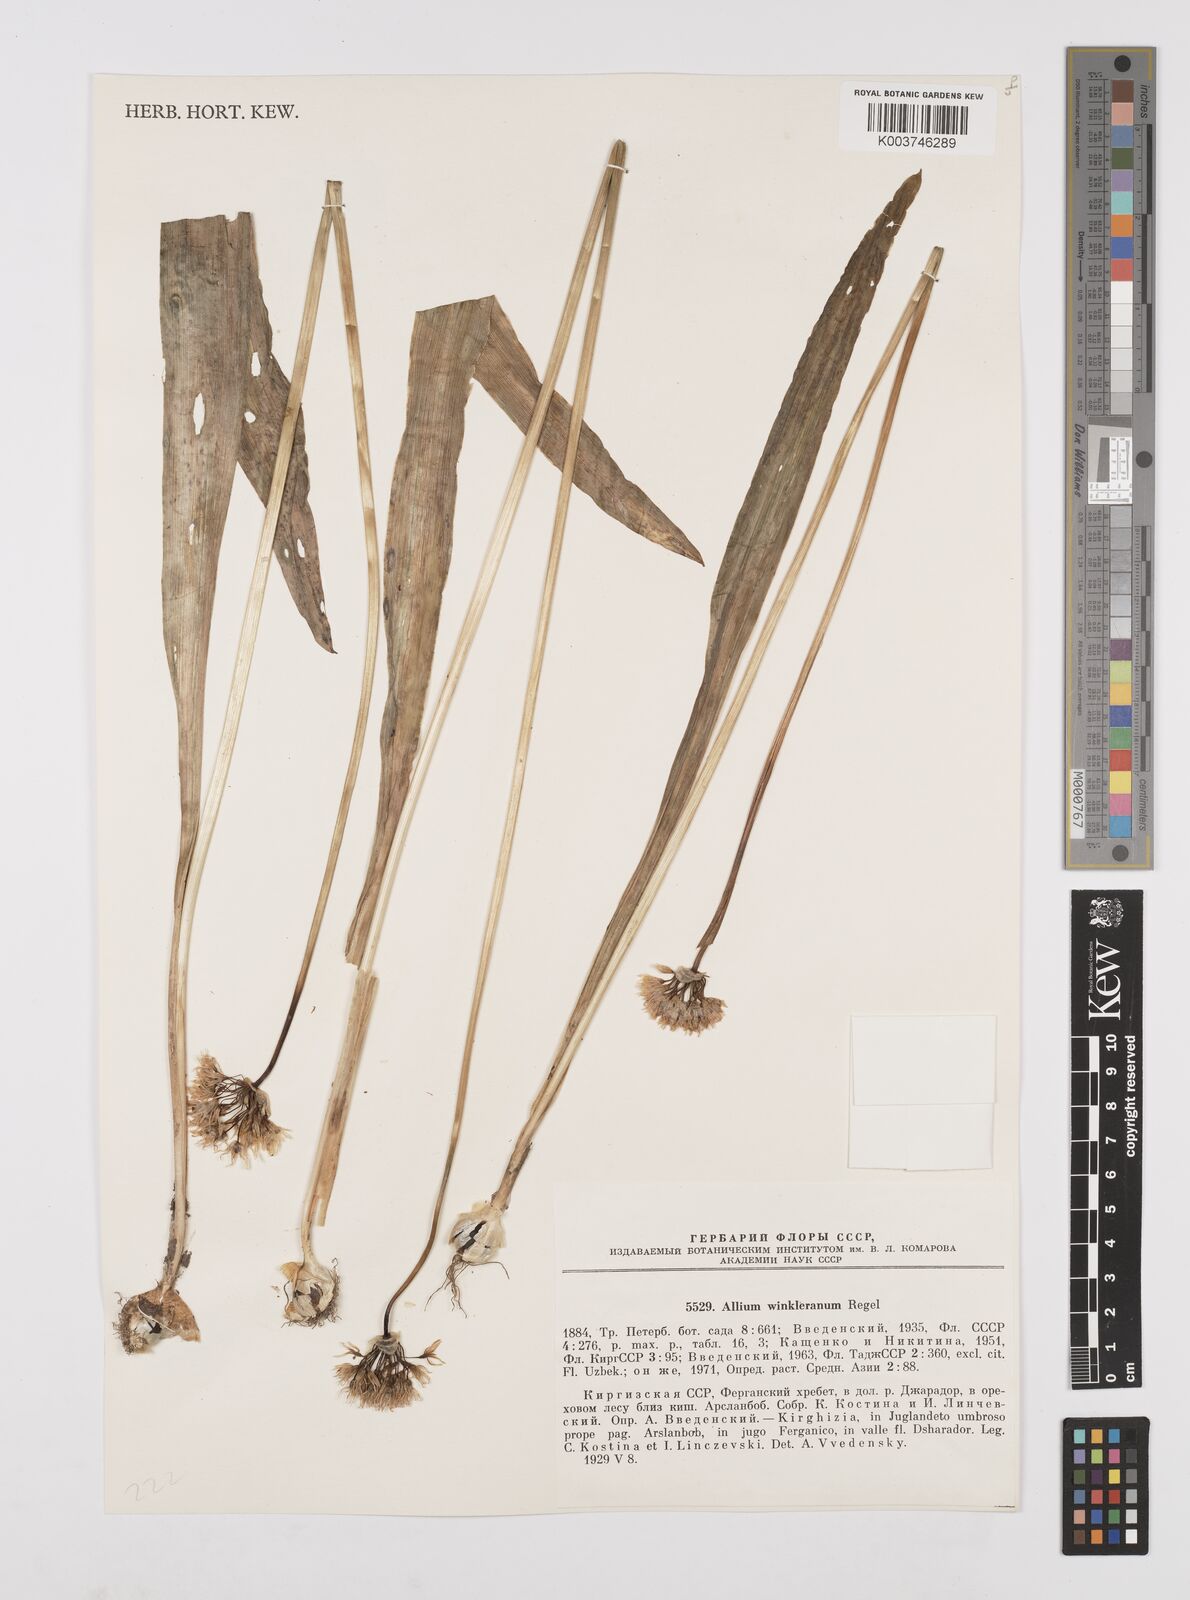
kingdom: Plantae
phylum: Tracheophyta
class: Liliopsida
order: Asparagales
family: Amaryllidaceae
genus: Allium
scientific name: Allium winklerianum
